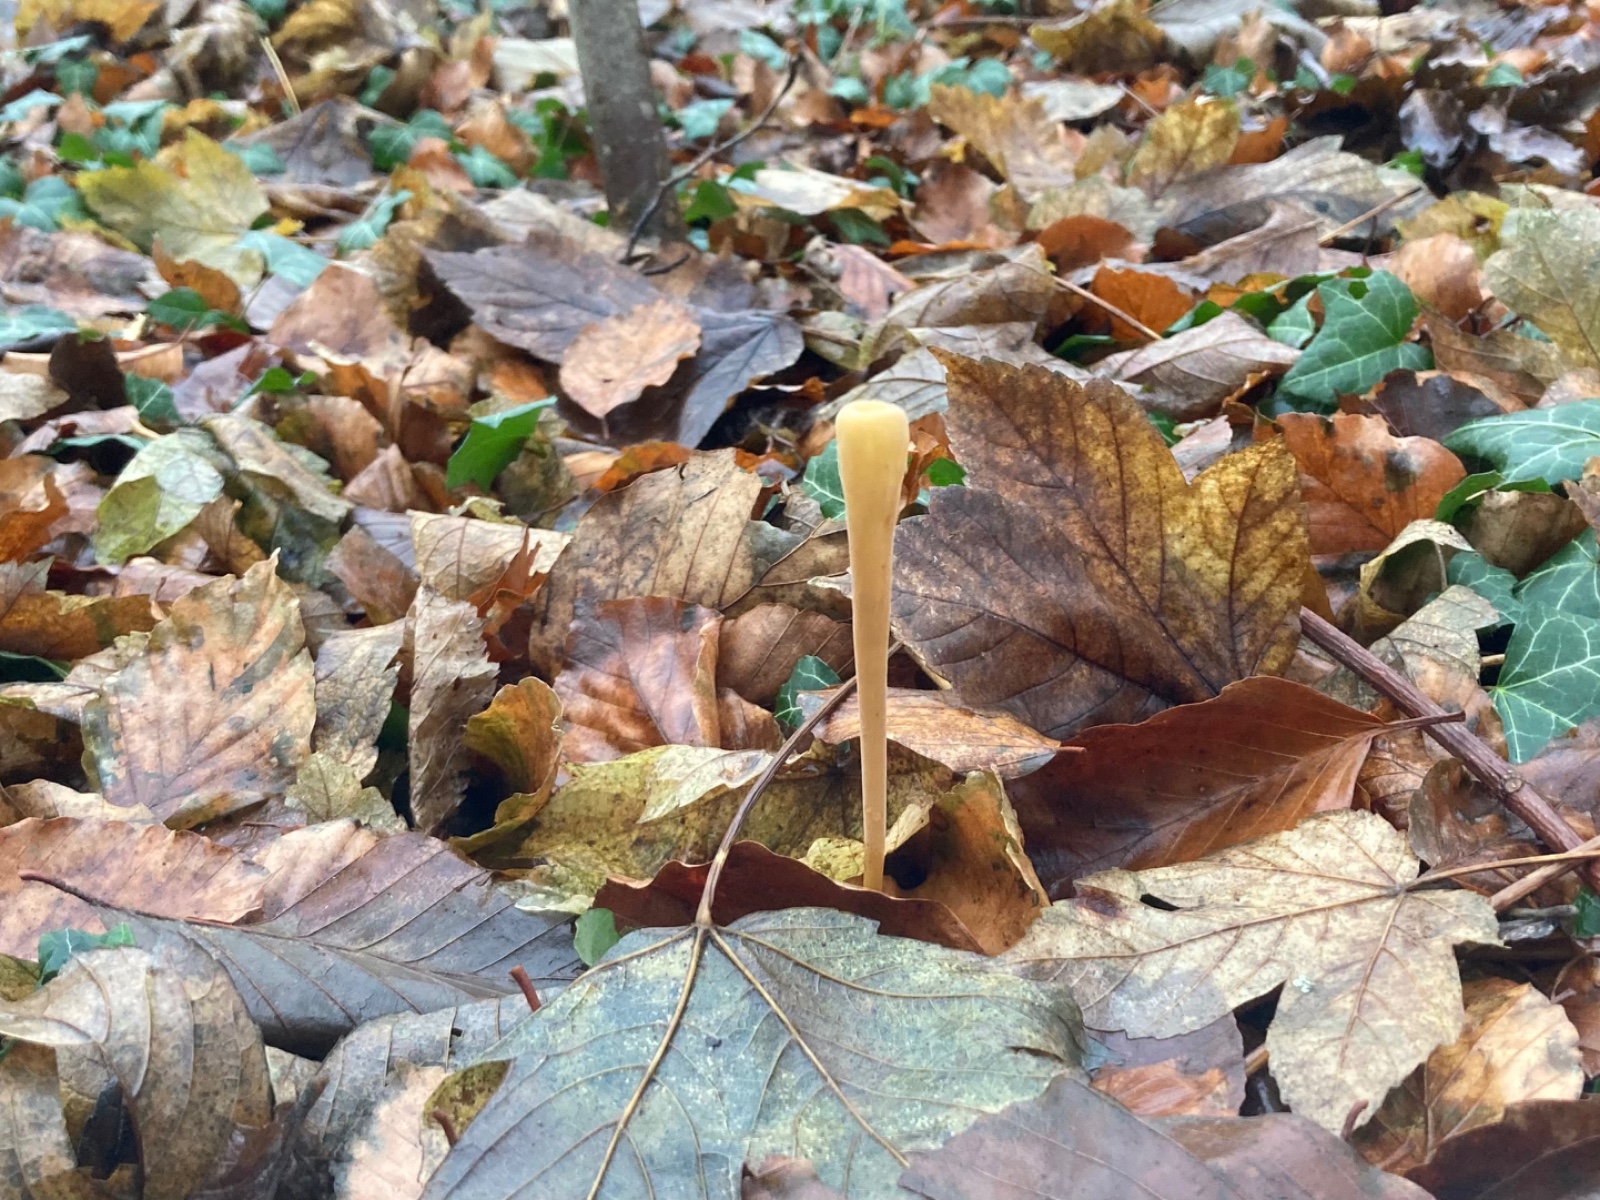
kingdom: Fungi
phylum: Basidiomycota
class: Agaricomycetes
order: Agaricales
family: Typhulaceae
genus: Typhula
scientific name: Typhula fistulosa
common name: pibet rørkølle
